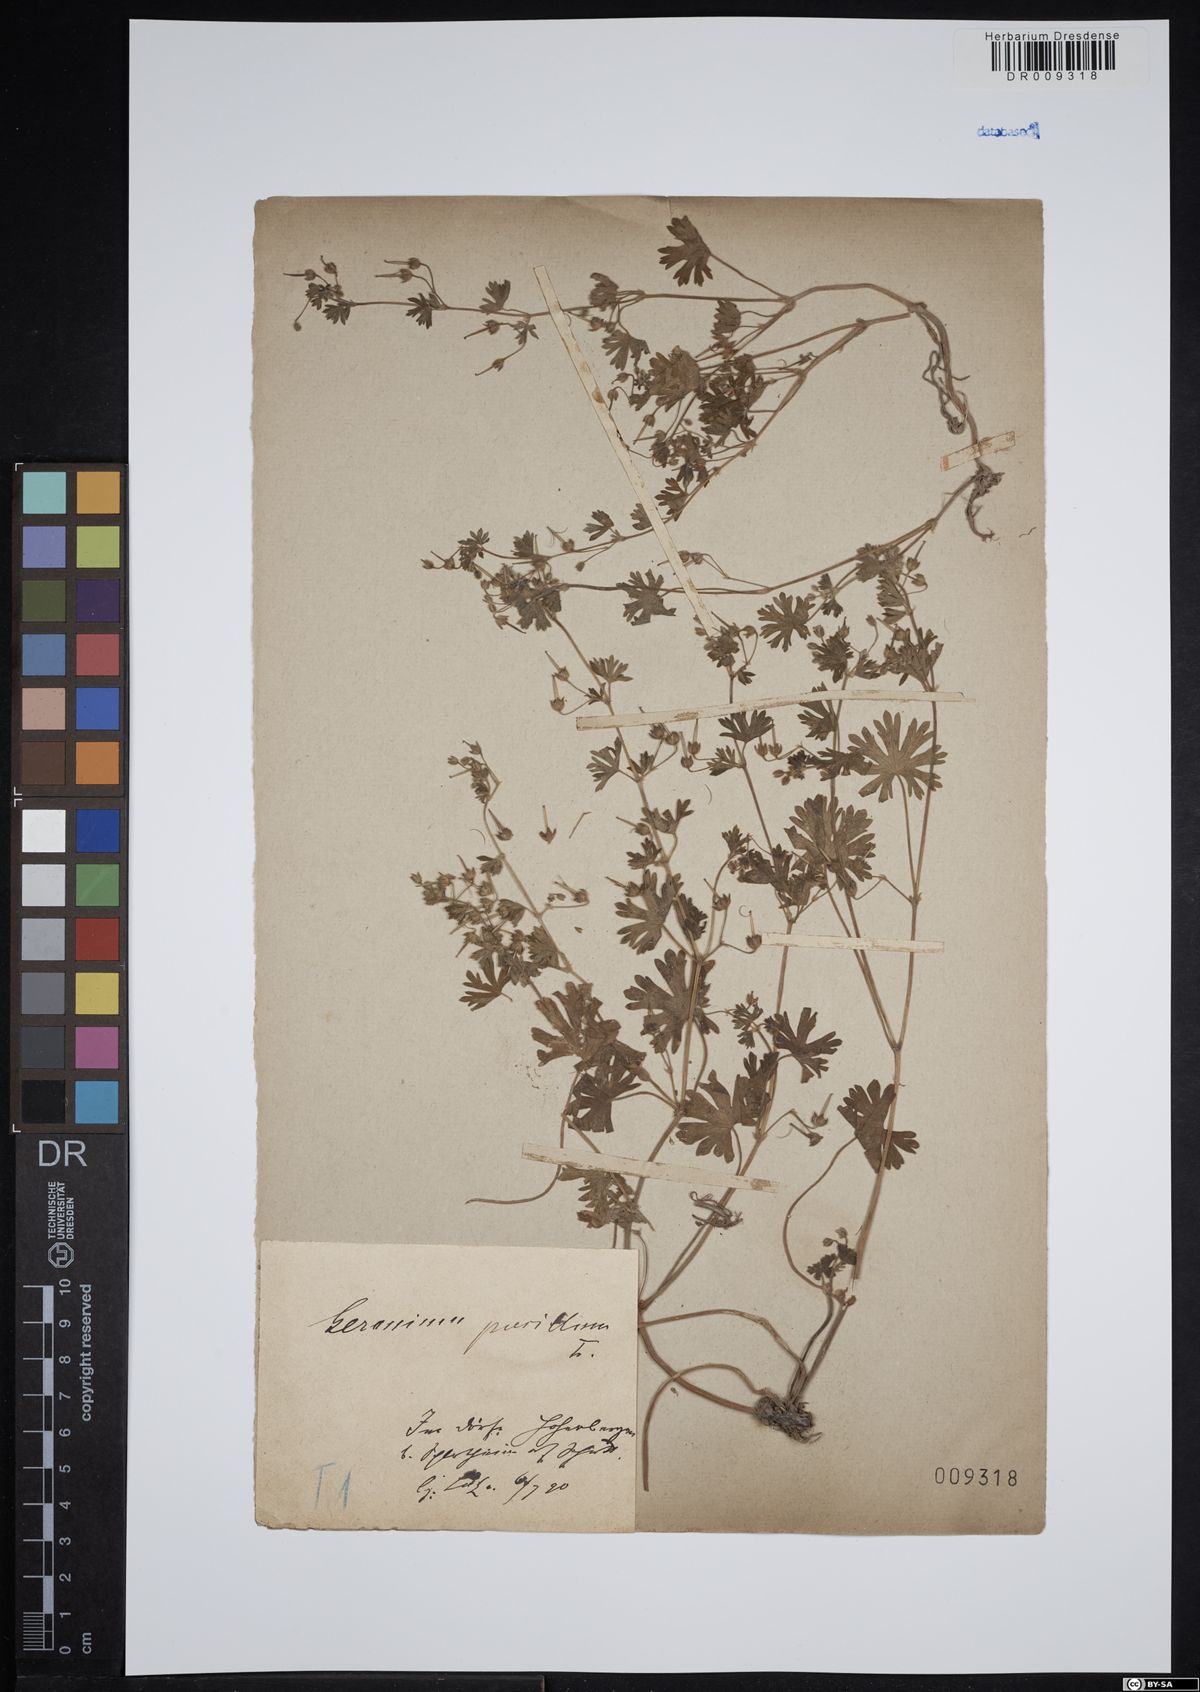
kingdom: Plantae
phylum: Tracheophyta
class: Magnoliopsida
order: Geraniales
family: Geraniaceae
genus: Geranium
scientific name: Geranium pusillum
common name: Small geranium
